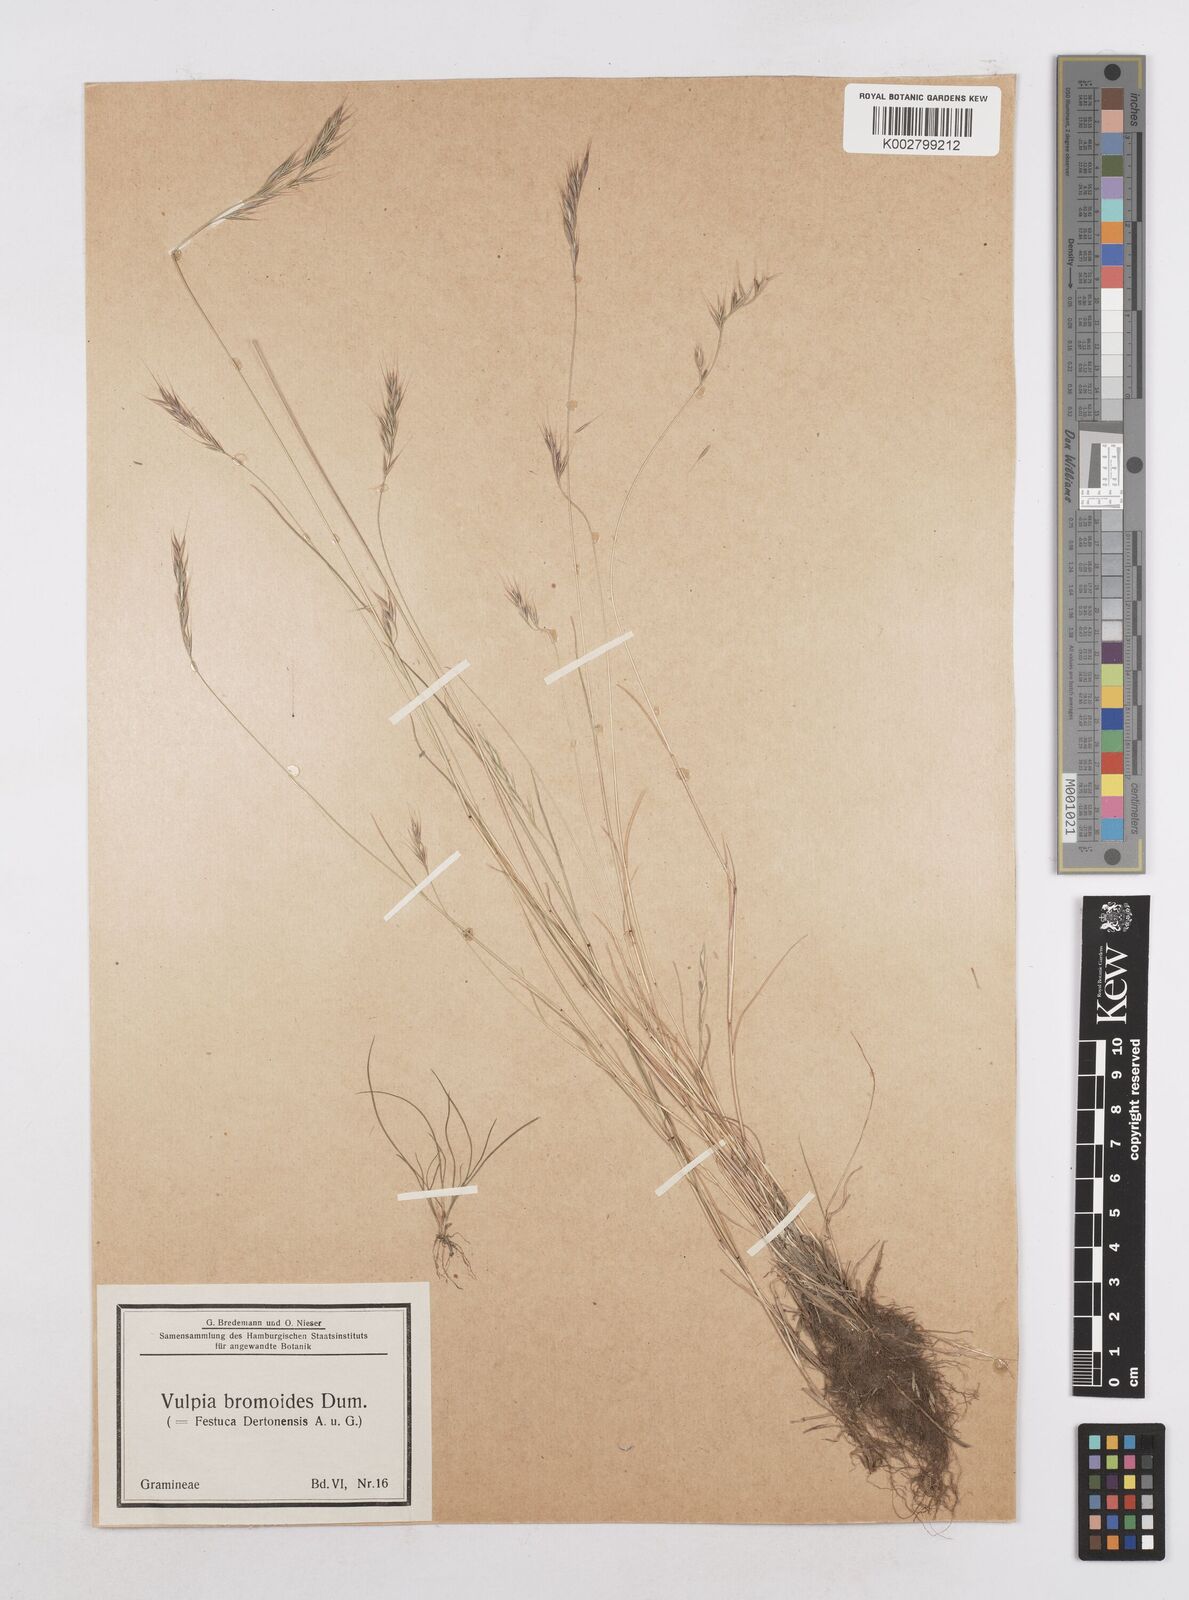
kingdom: Plantae
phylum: Tracheophyta
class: Liliopsida
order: Poales
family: Poaceae
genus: Festuca
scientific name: Festuca bromoides
